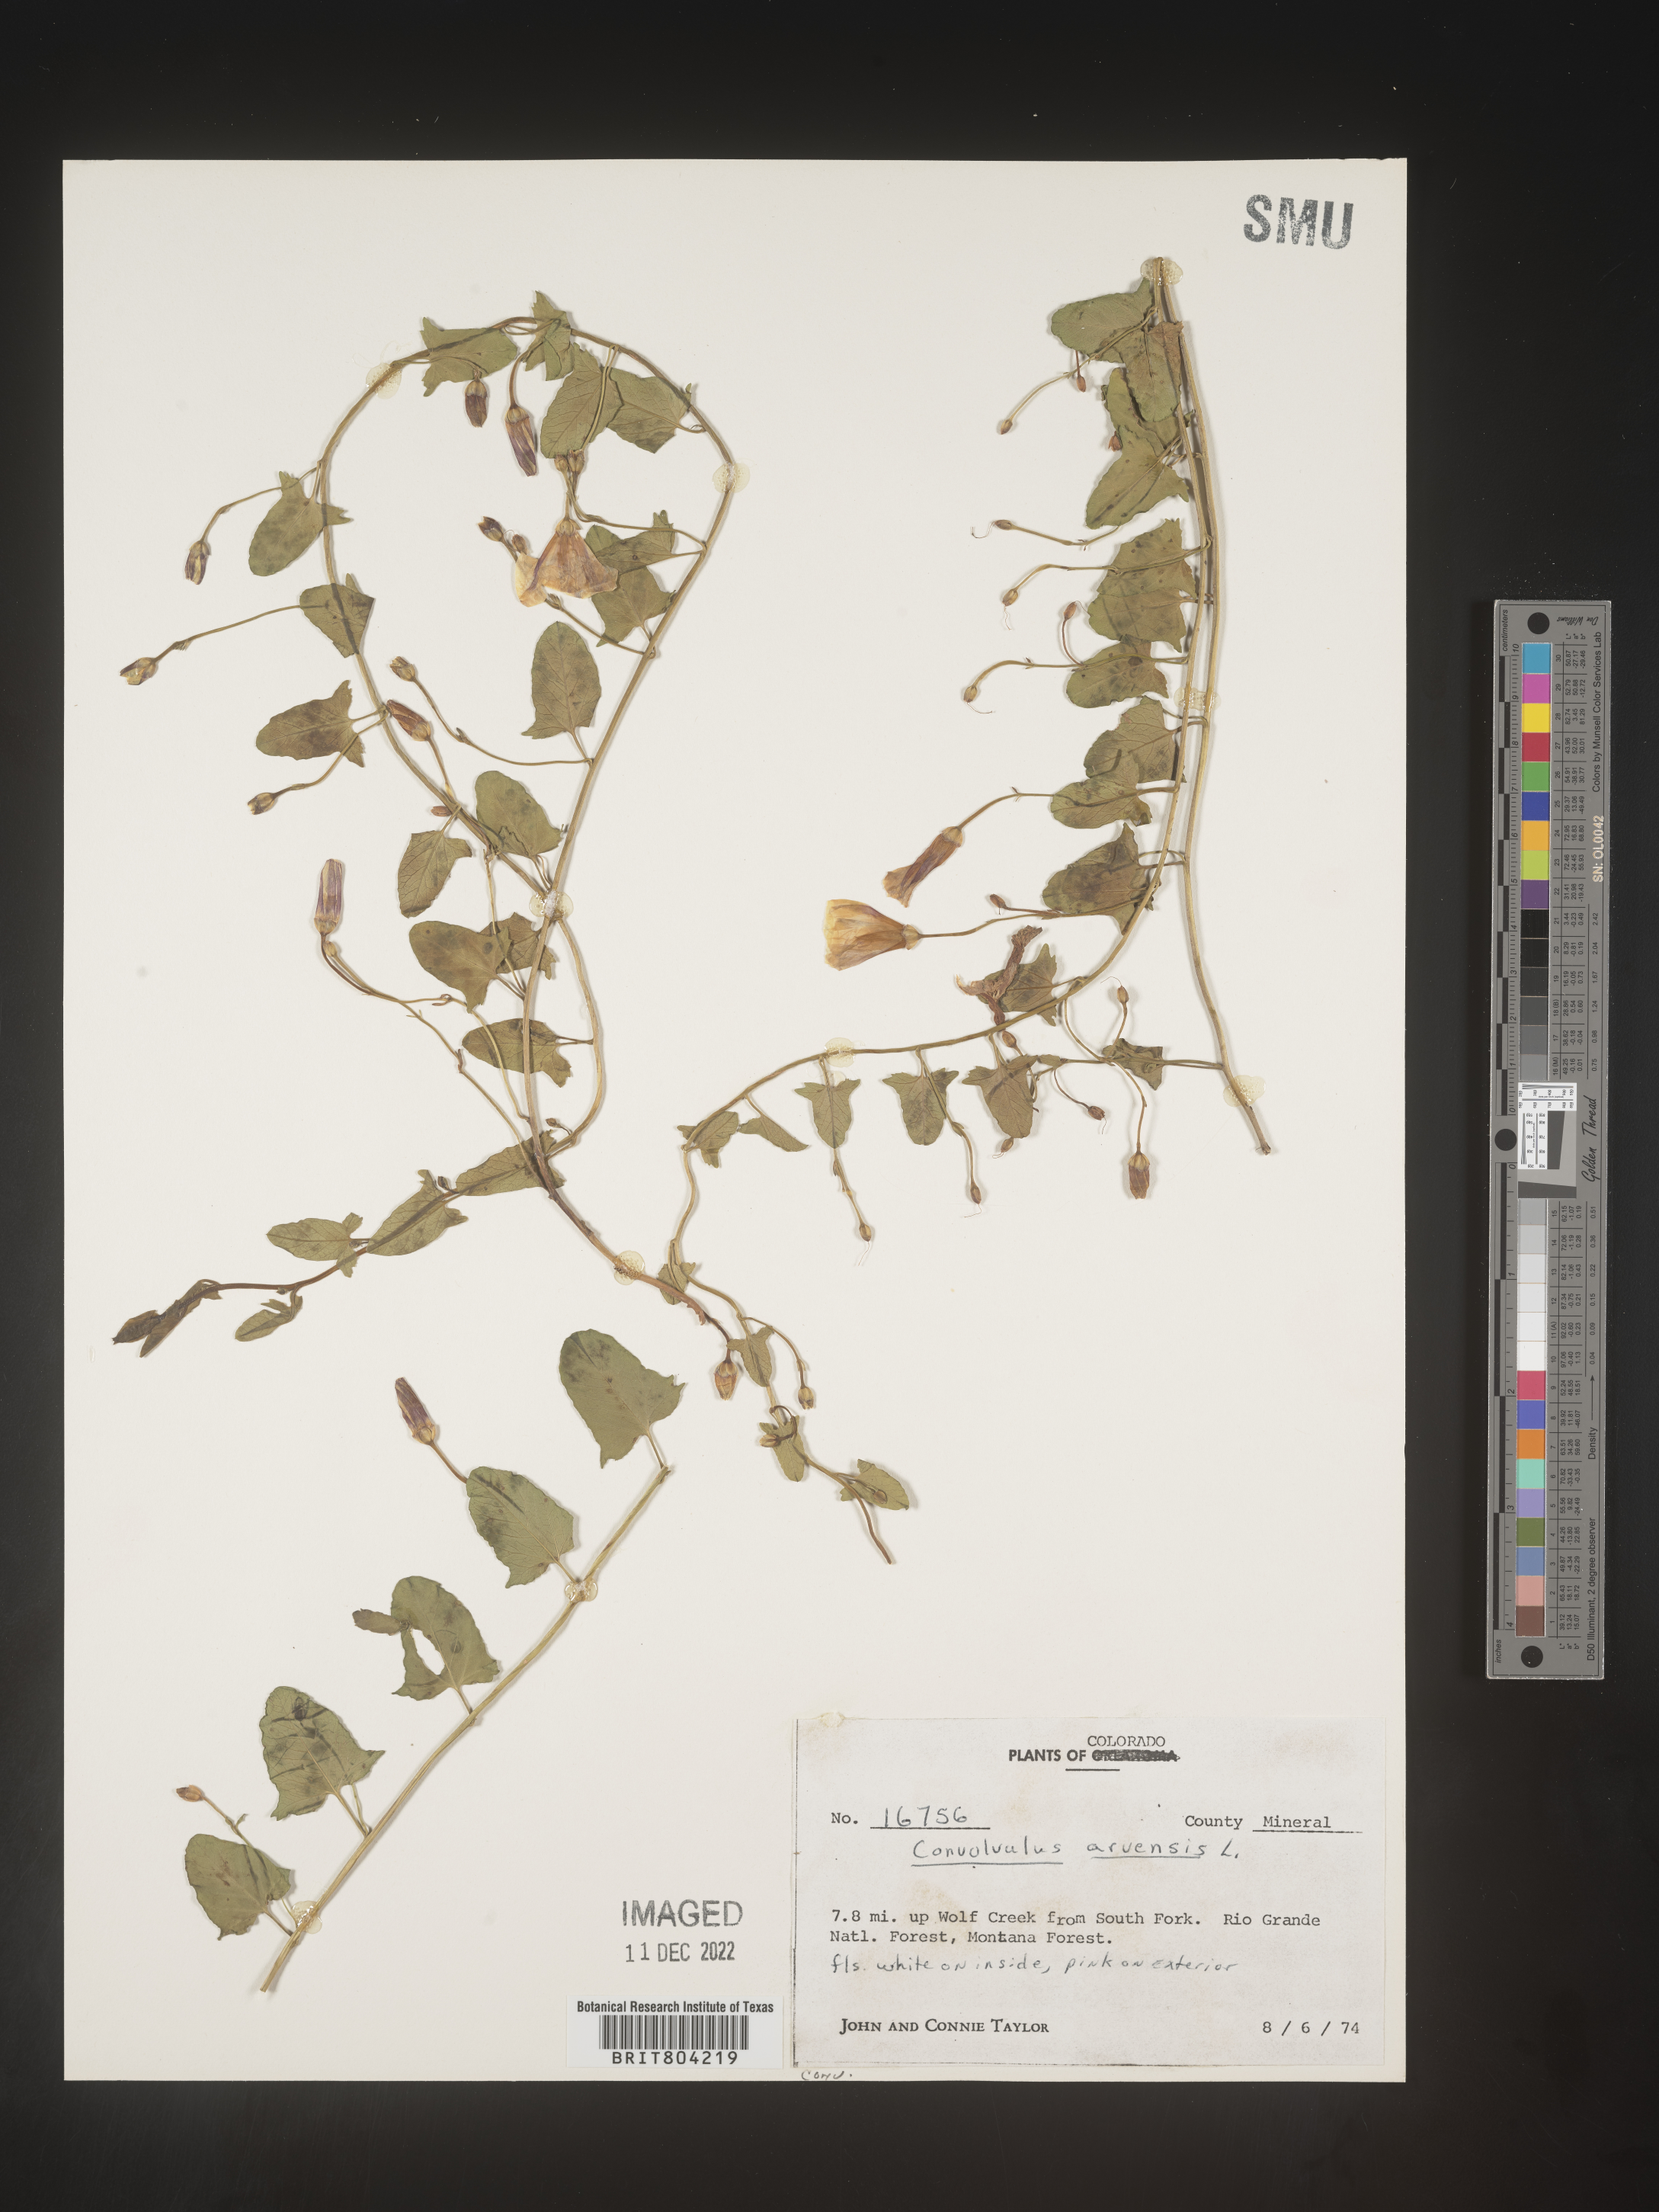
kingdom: Plantae
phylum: Tracheophyta
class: Magnoliopsida
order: Solanales
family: Convolvulaceae
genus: Convolvulus
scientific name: Convolvulus arvensis
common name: Field bindweed
